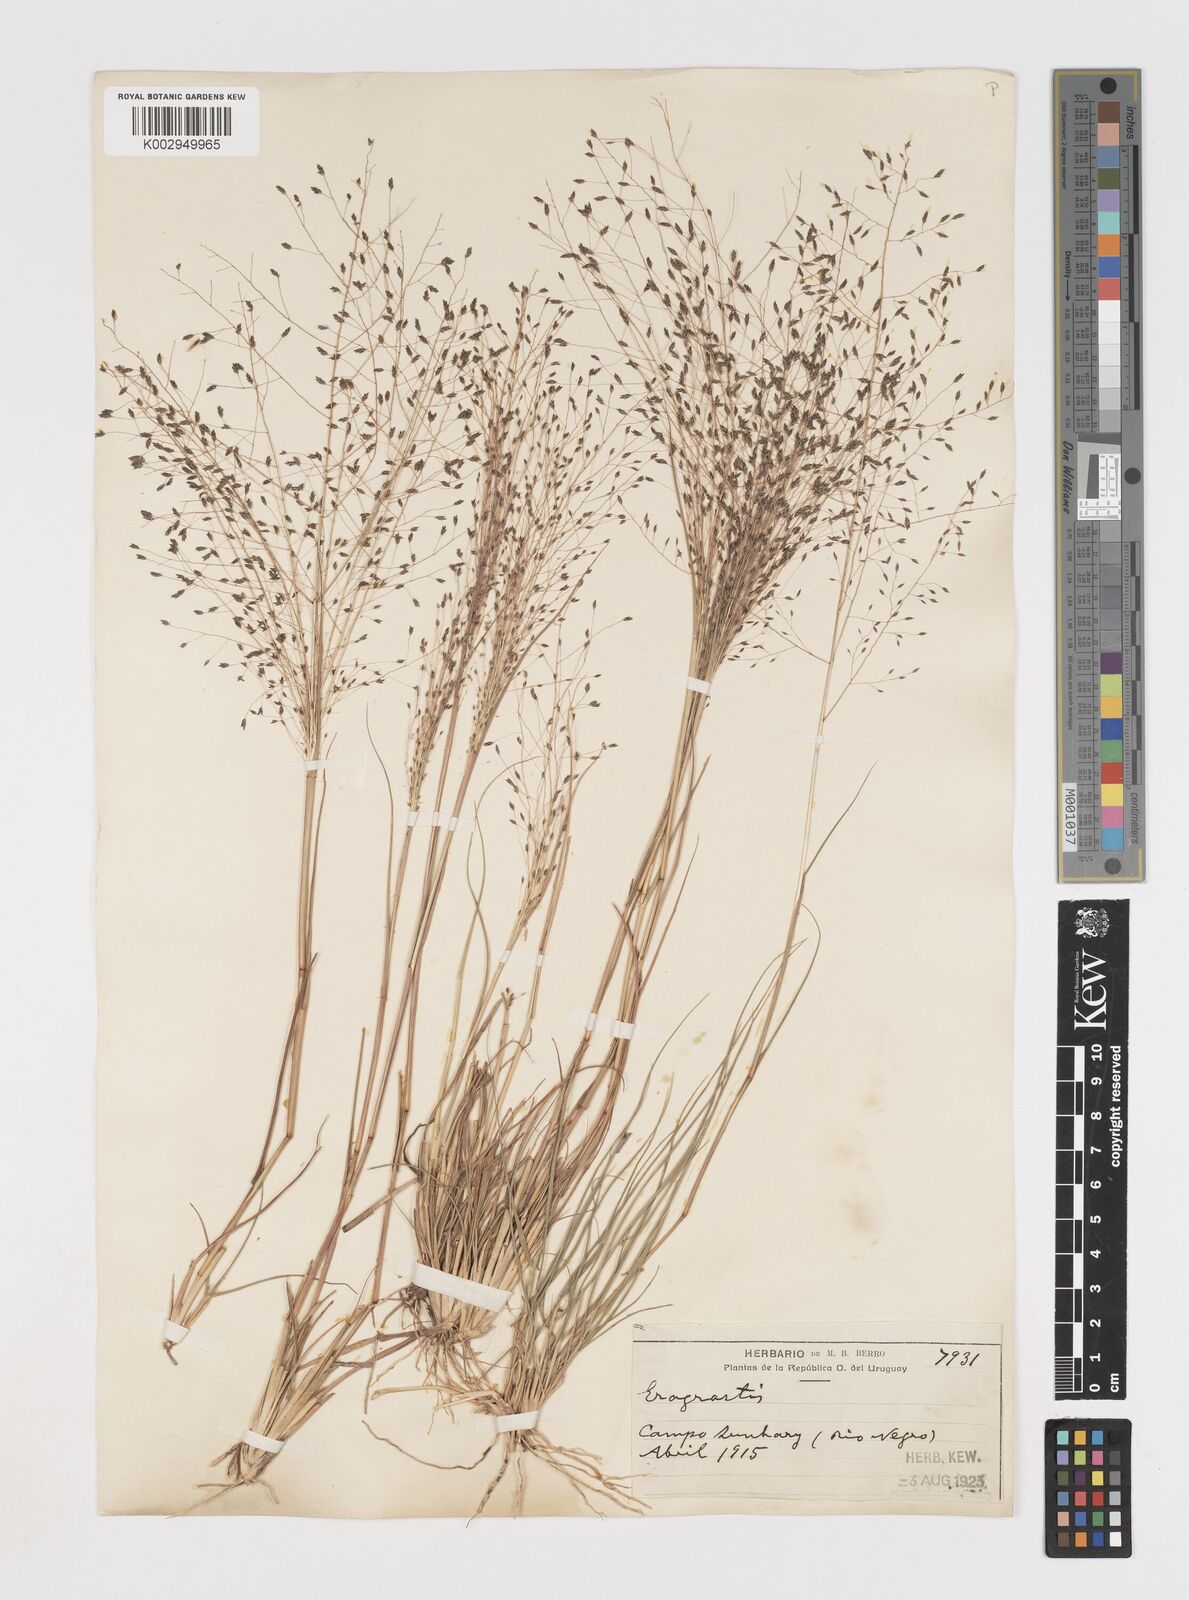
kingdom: Plantae
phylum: Tracheophyta
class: Liliopsida
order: Poales
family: Poaceae
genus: Eragrostis
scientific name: Eragrostis
